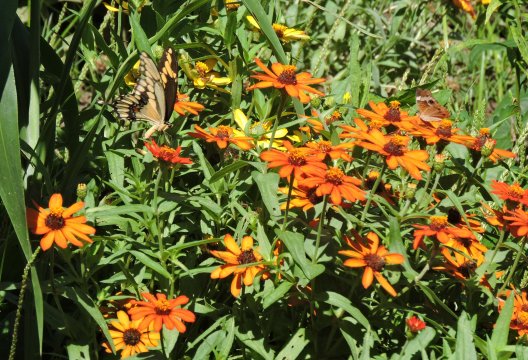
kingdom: Animalia
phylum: Arthropoda
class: Insecta
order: Lepidoptera
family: Papilionidae
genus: Papilio
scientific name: Papilio cresphontes
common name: Eastern Giant Swallowtail
